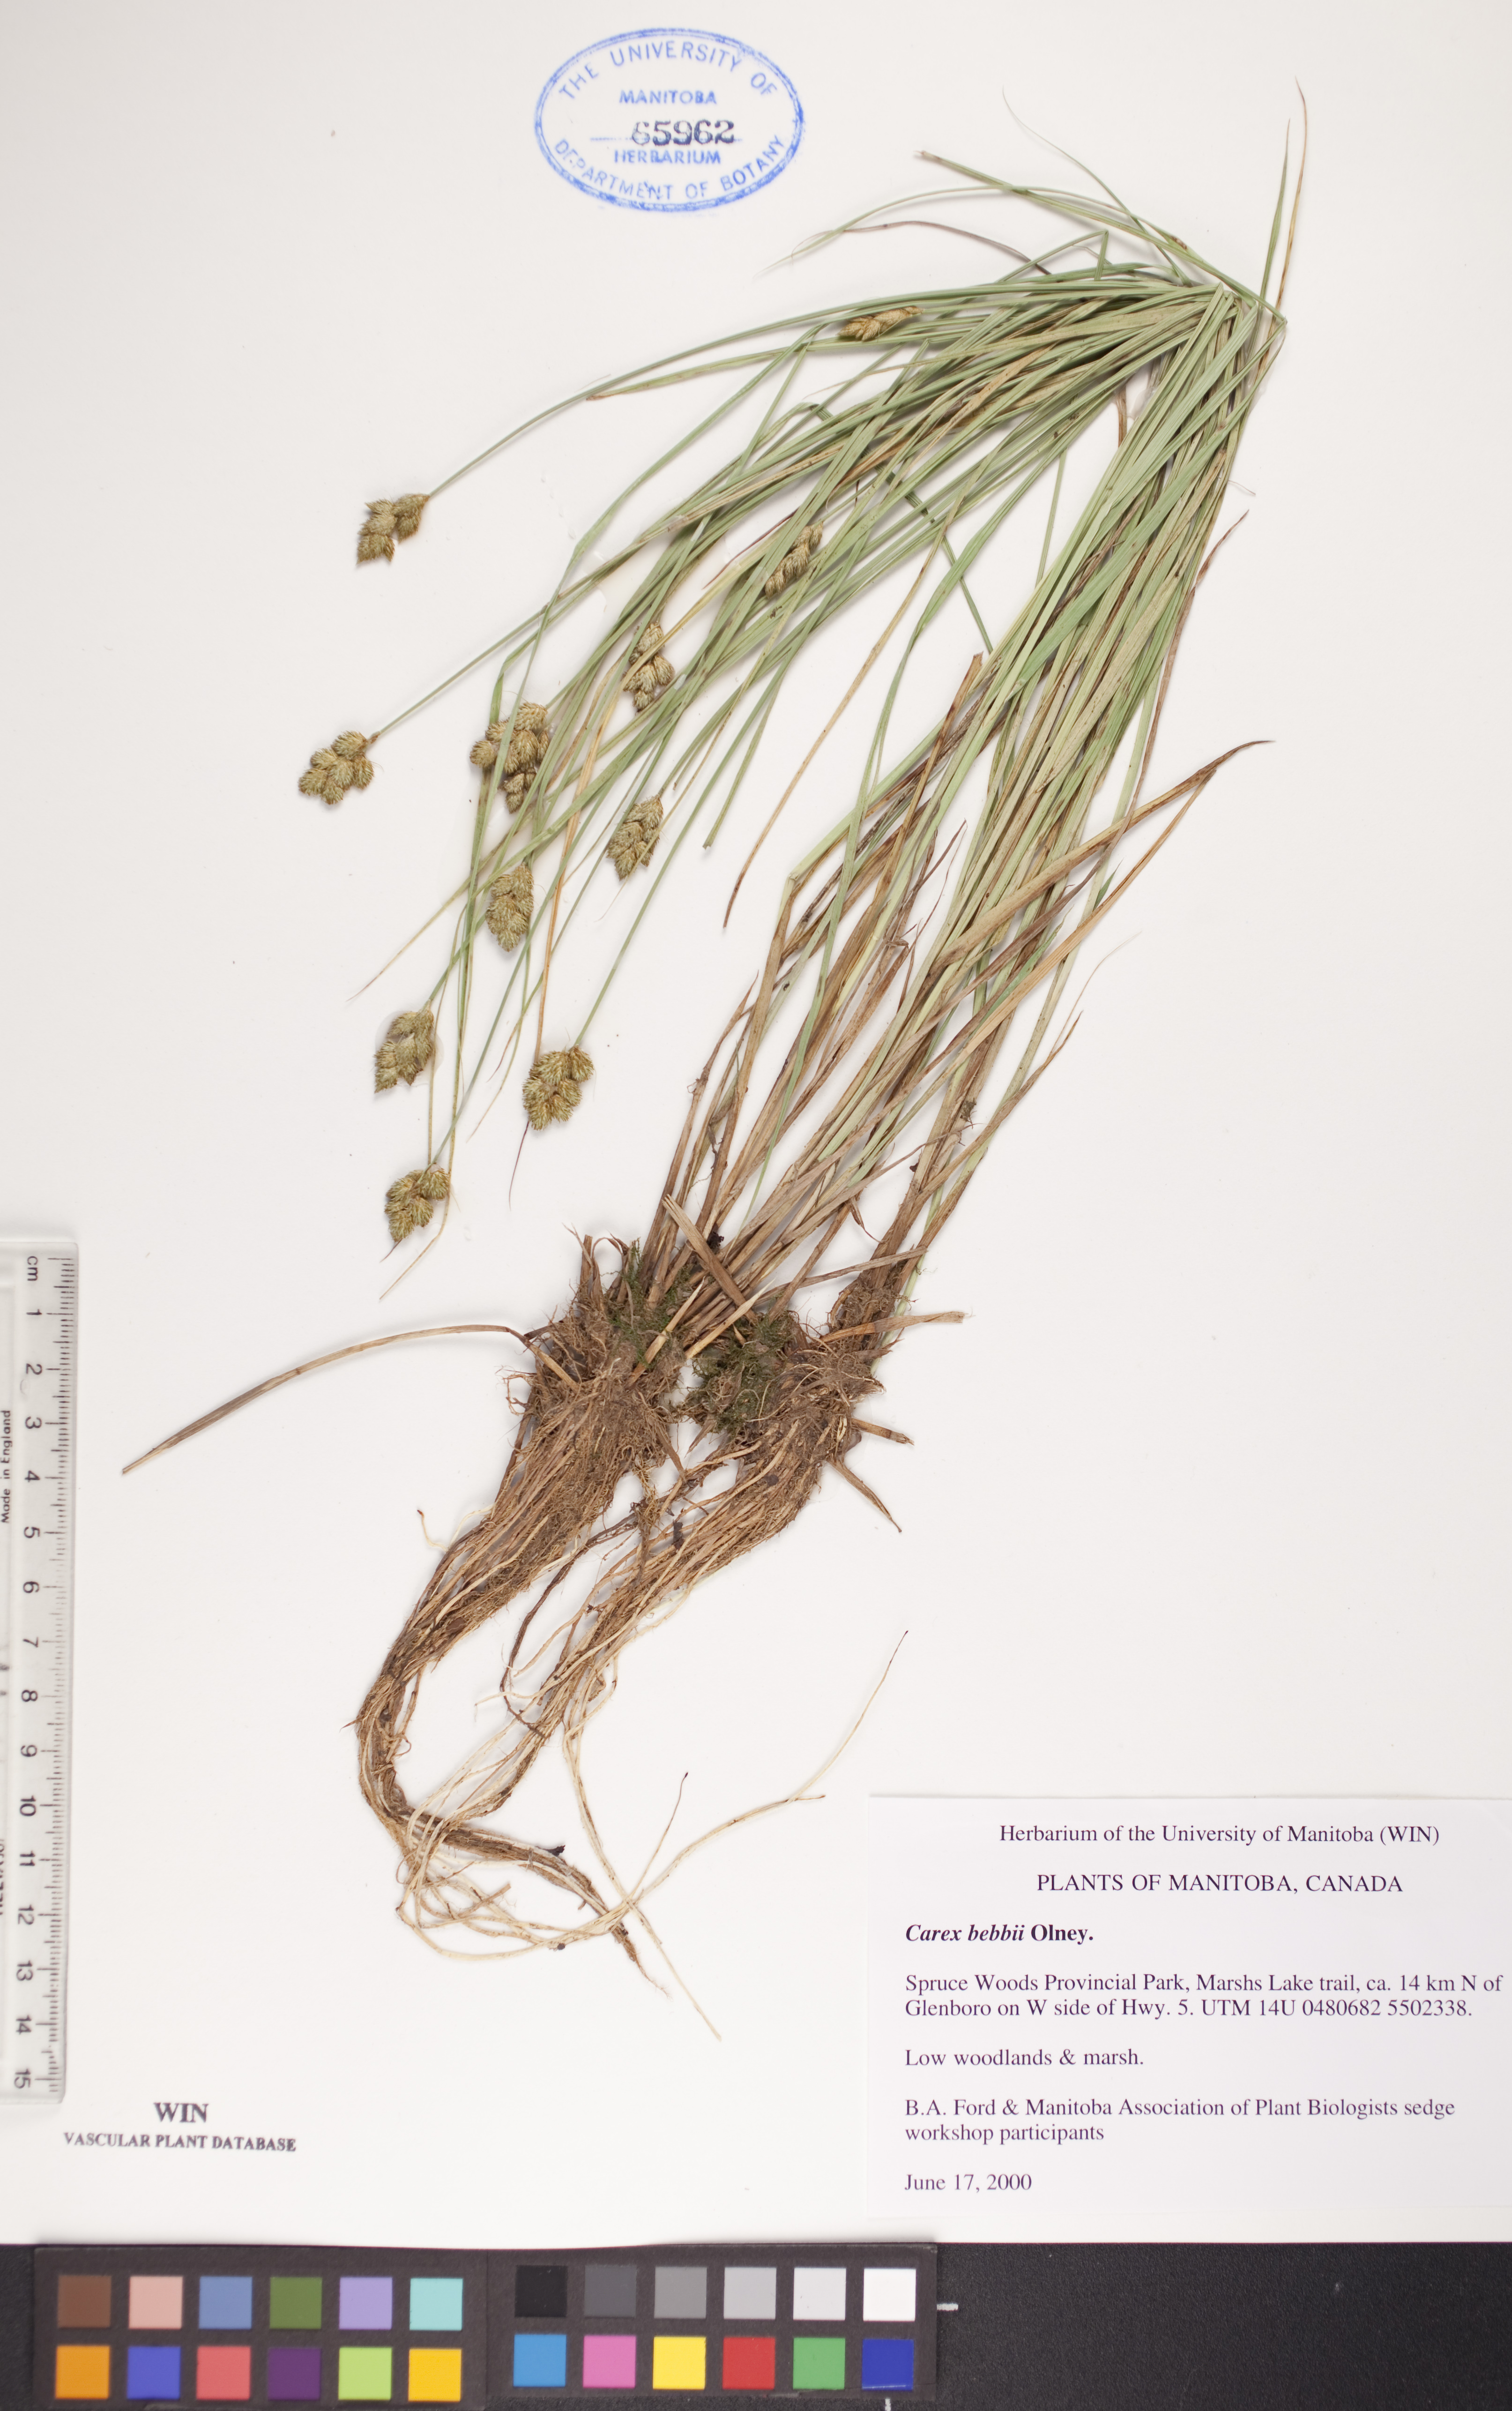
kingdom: Plantae
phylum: Tracheophyta
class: Liliopsida
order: Poales
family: Cyperaceae
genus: Carex
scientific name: Carex bebbii
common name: Bebb's sedge
